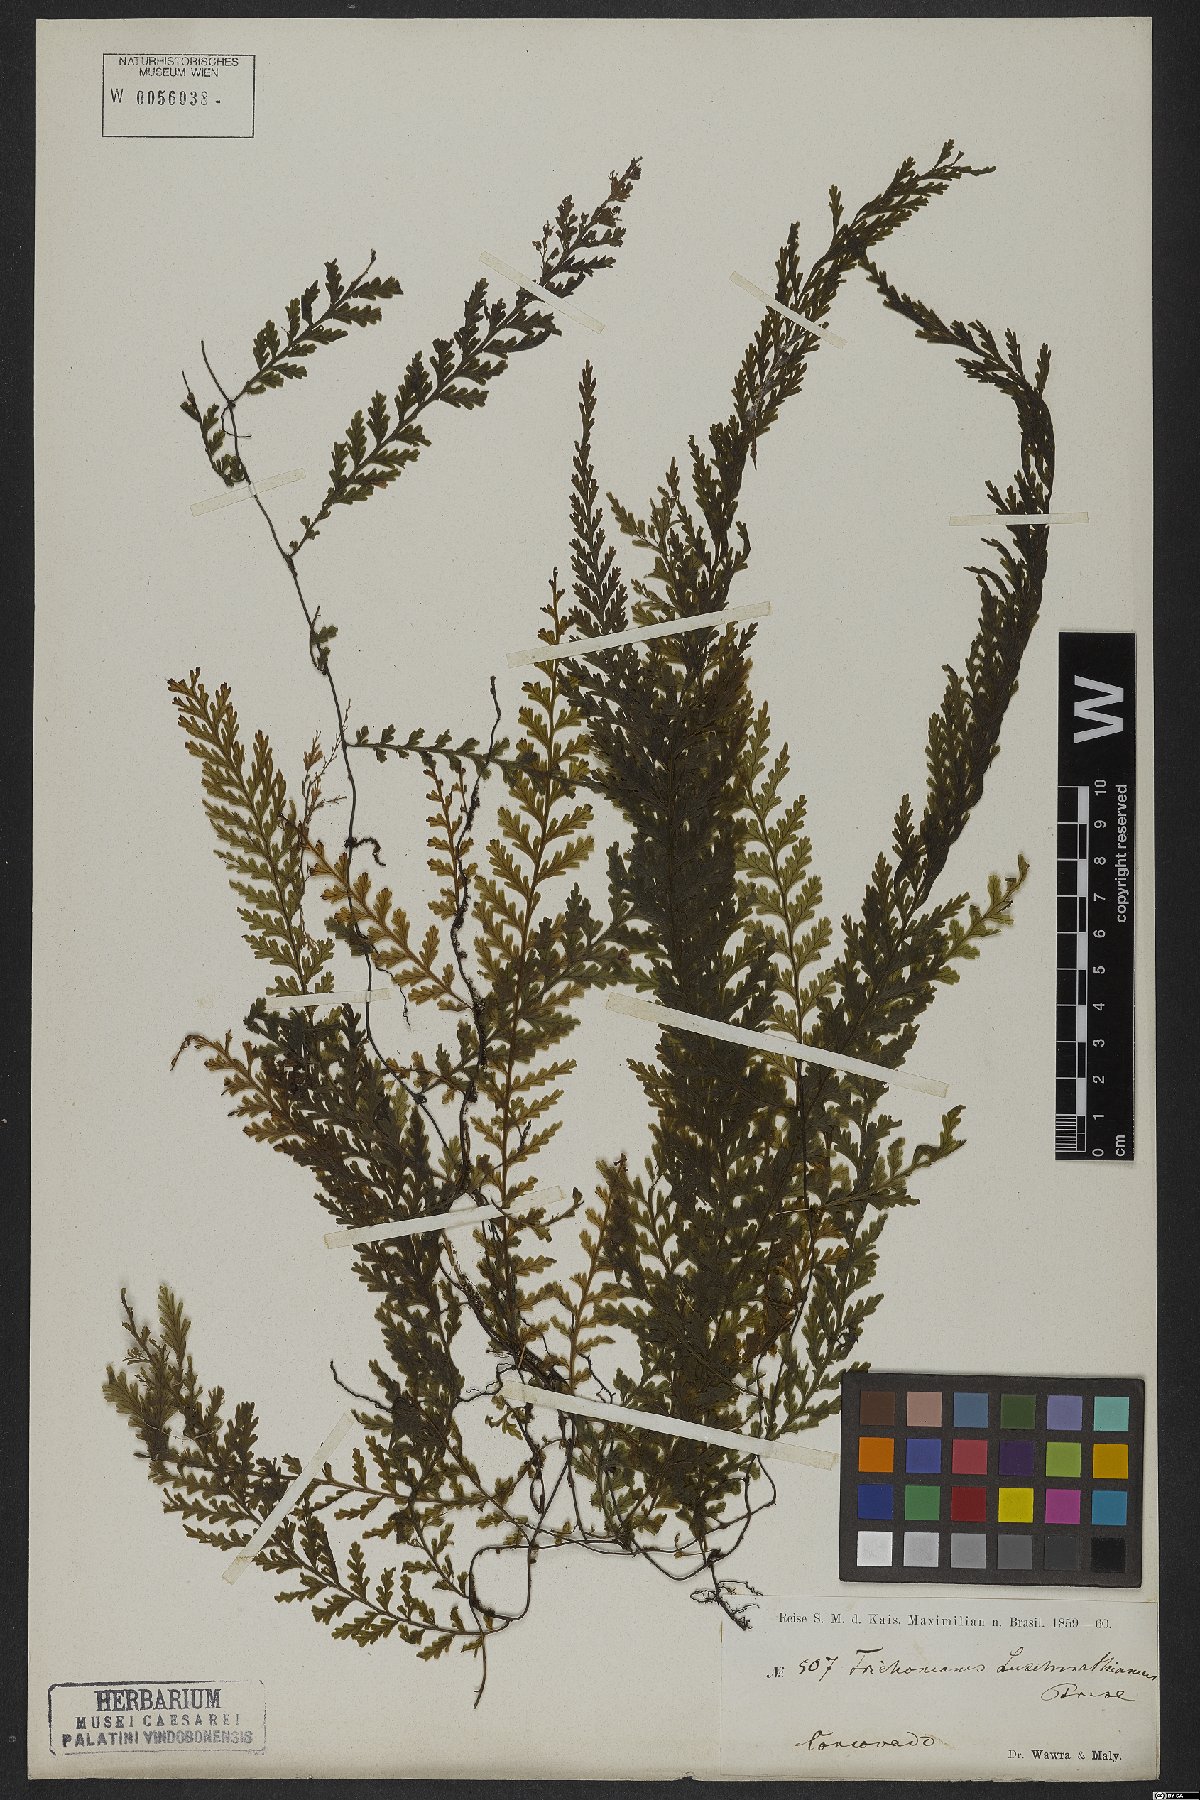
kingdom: Plantae
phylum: Tracheophyta
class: Polypodiopsida
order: Hymenophyllales
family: Hymenophyllaceae
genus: Vandenboschia
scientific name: Vandenboschia rupestris
